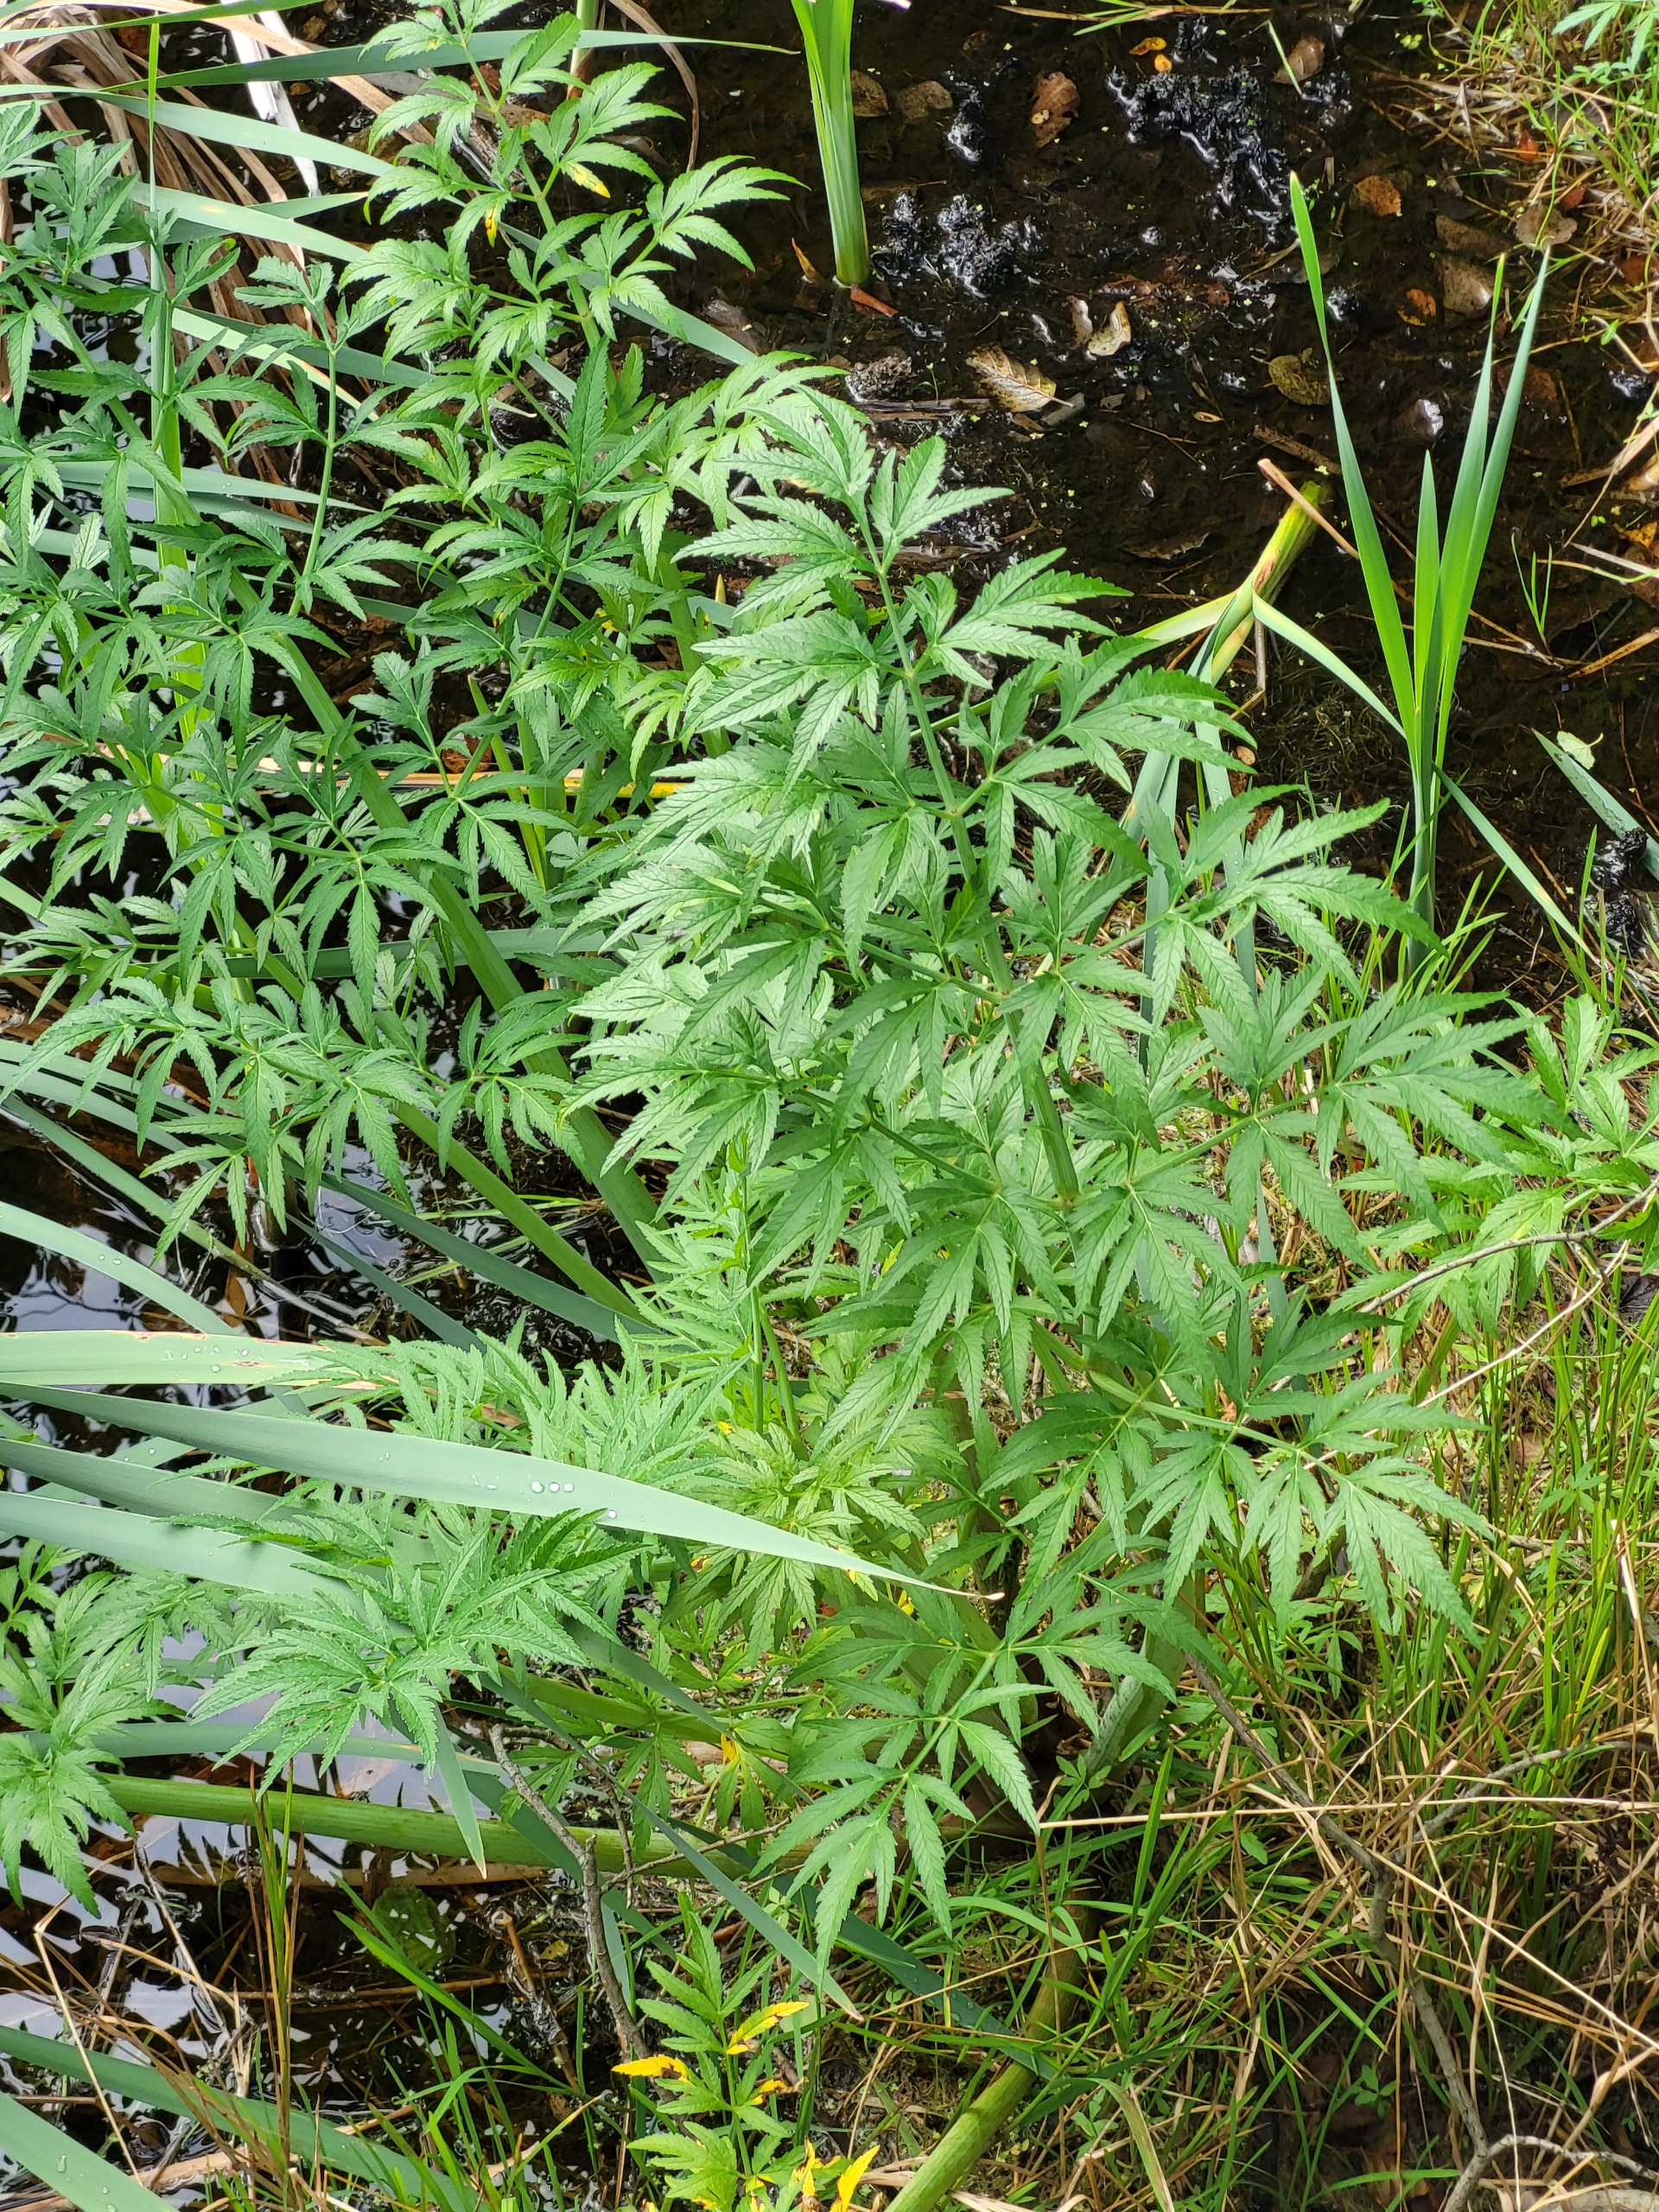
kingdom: Plantae
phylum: Tracheophyta
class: Magnoliopsida
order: Apiales
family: Apiaceae
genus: Cicuta
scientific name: Cicuta virosa
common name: Gifttyde
